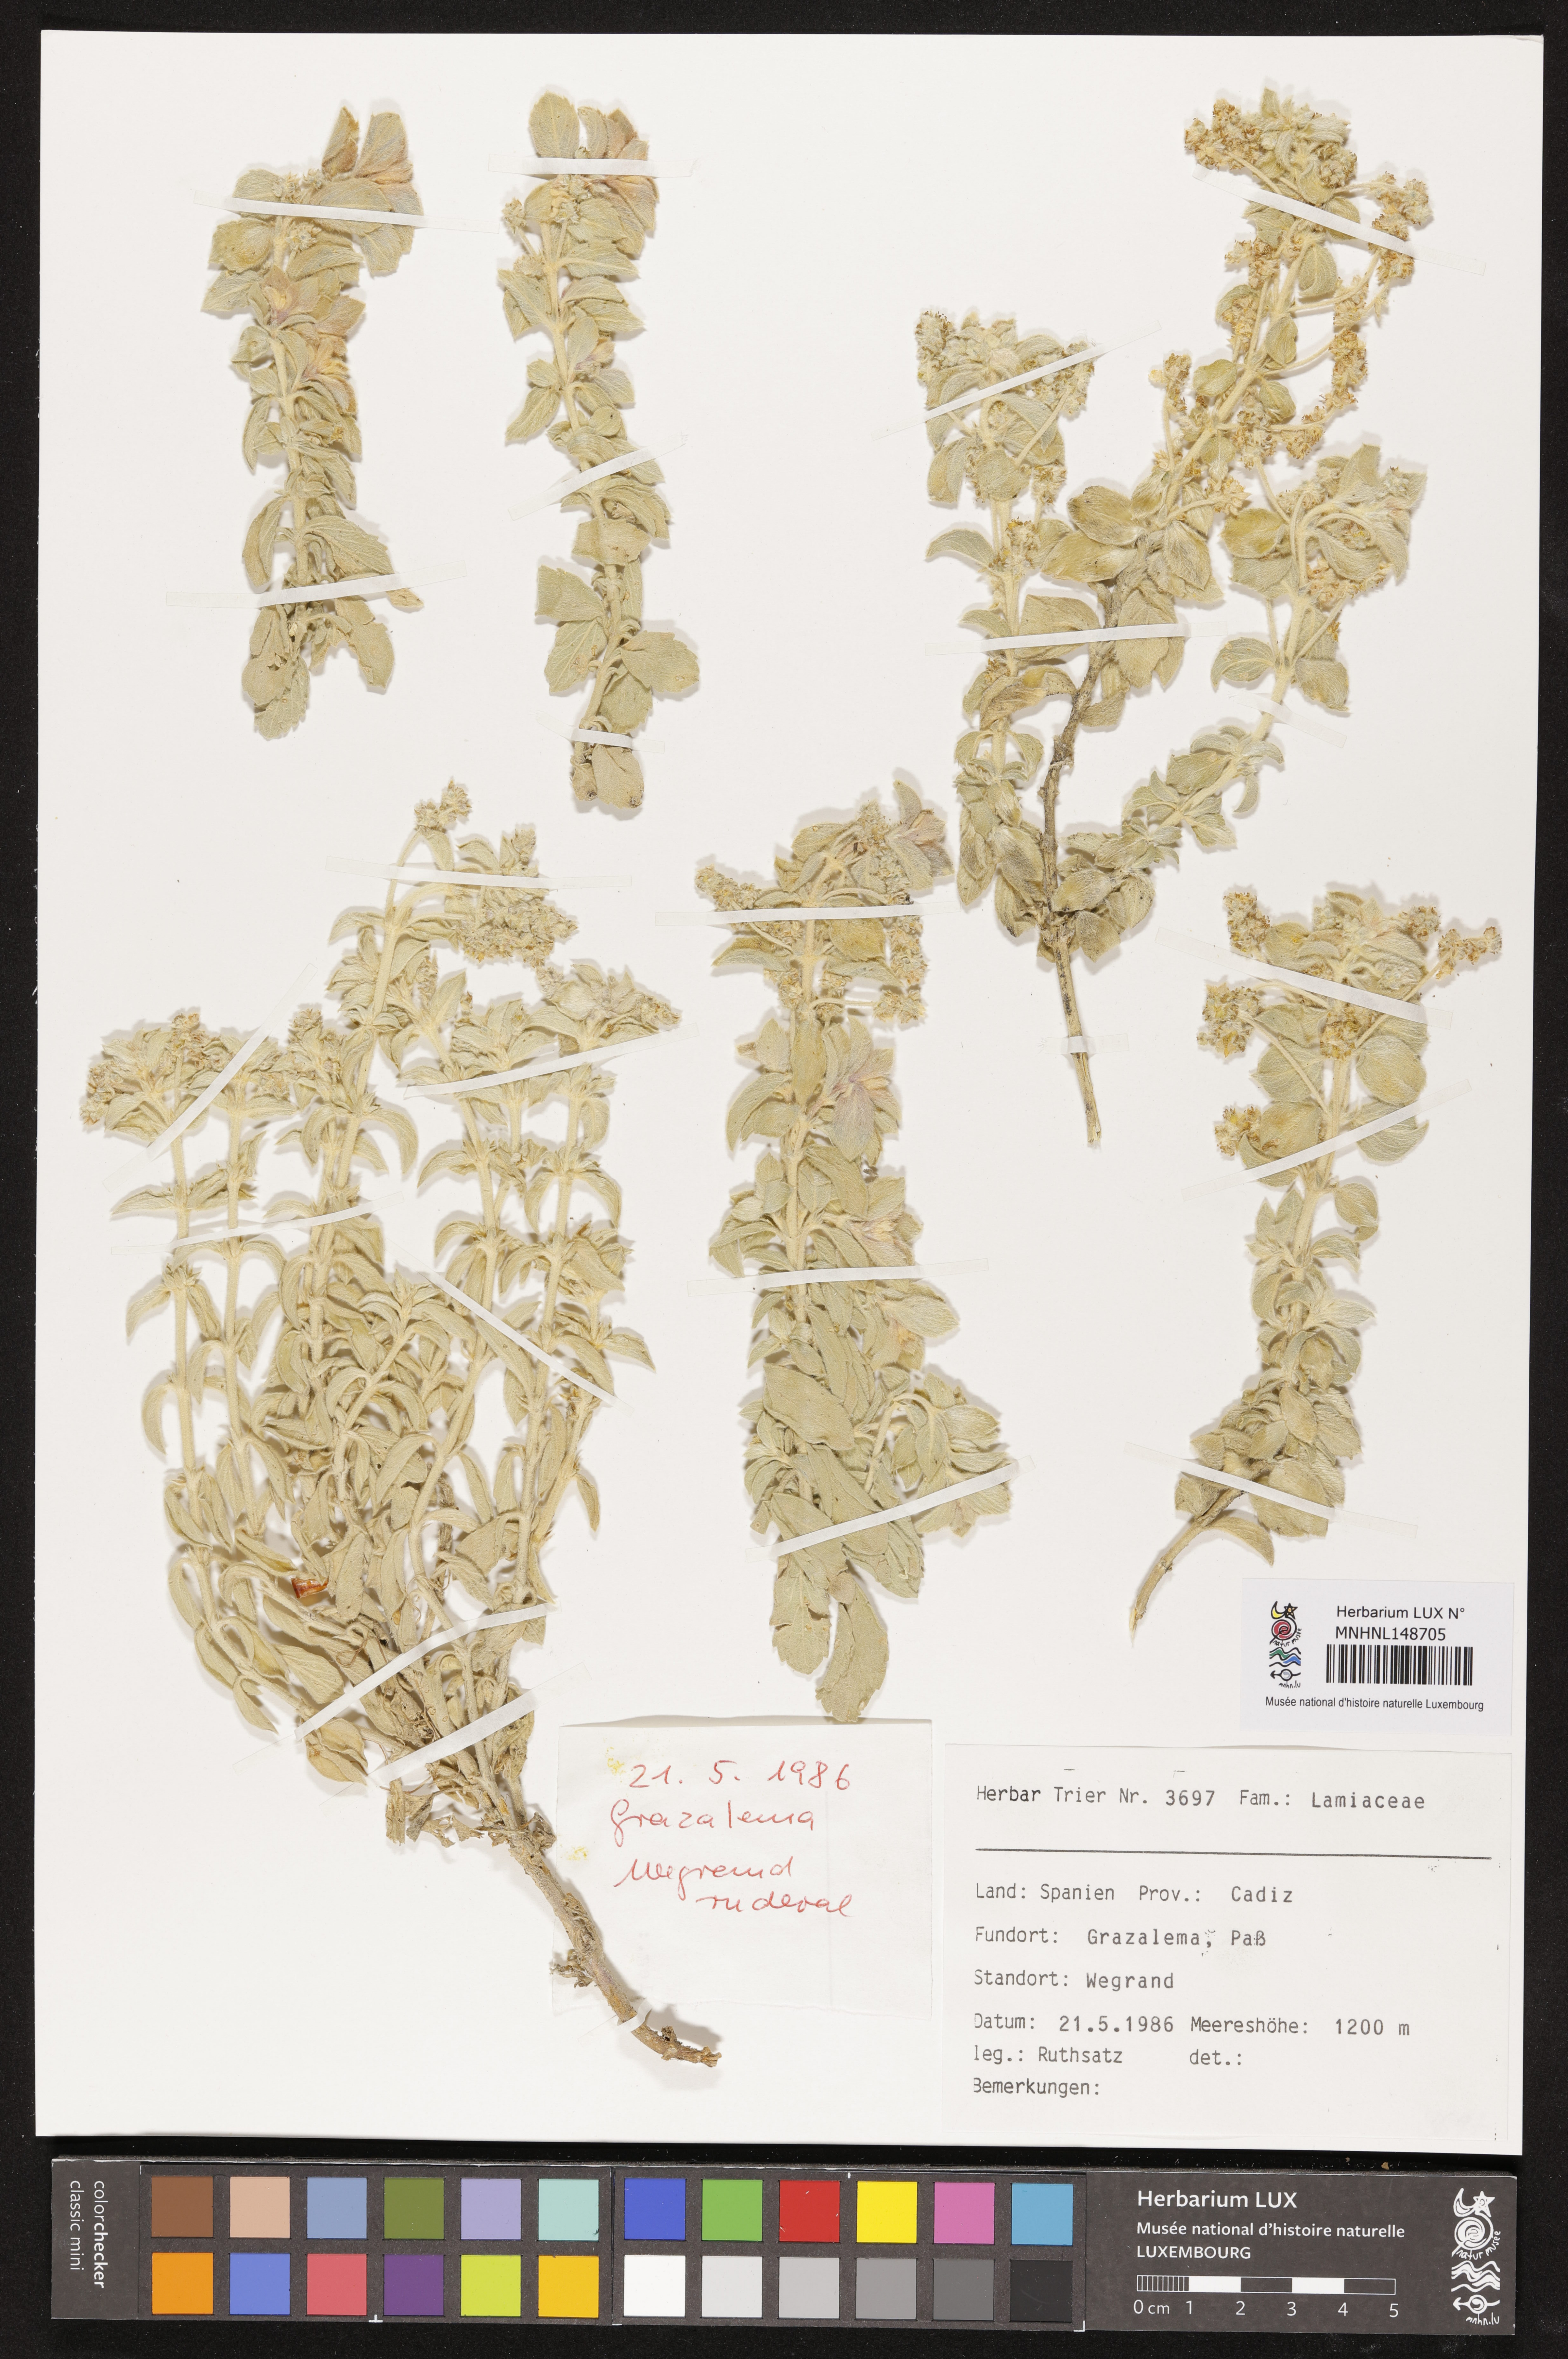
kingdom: Plantae
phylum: Tracheophyta
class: Magnoliopsida
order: Lamiales
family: Lamiaceae
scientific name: Lamiaceae
